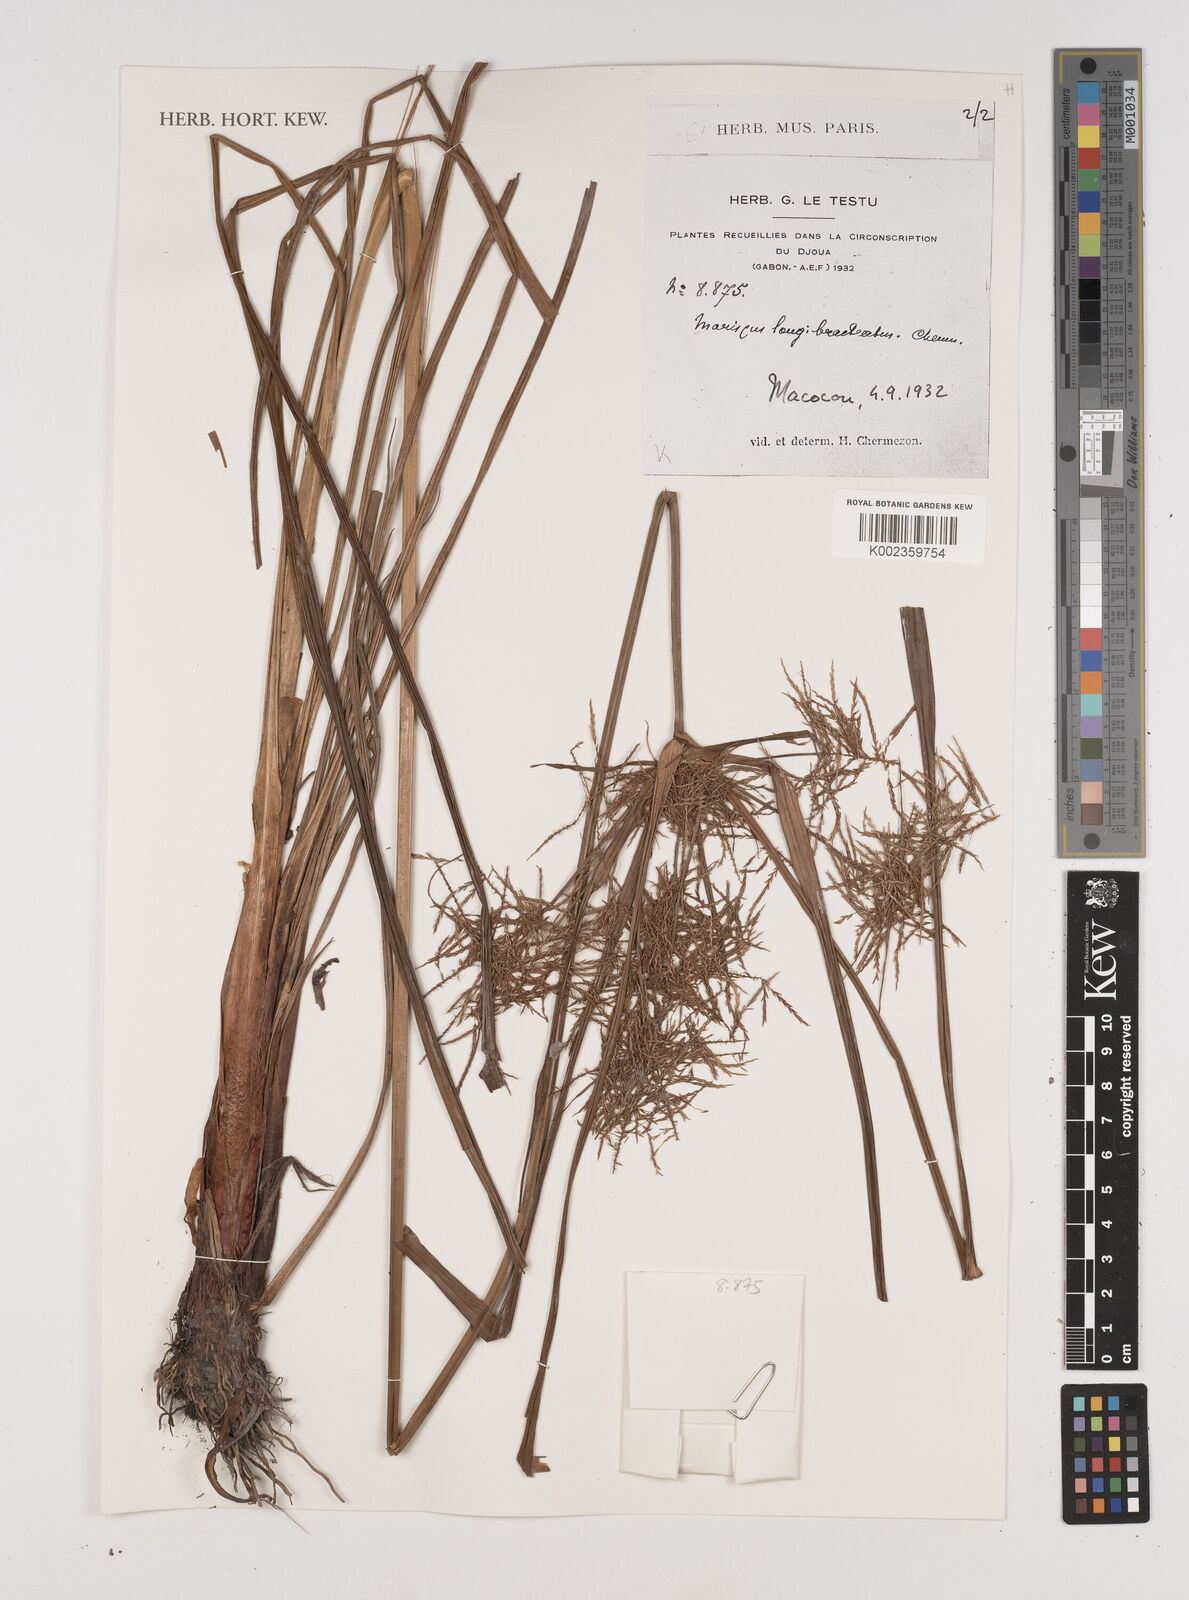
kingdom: Plantae
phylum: Tracheophyta
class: Liliopsida
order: Poales
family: Cyperaceae
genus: Cyperus
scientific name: Cyperus distans
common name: Slender cyperus
